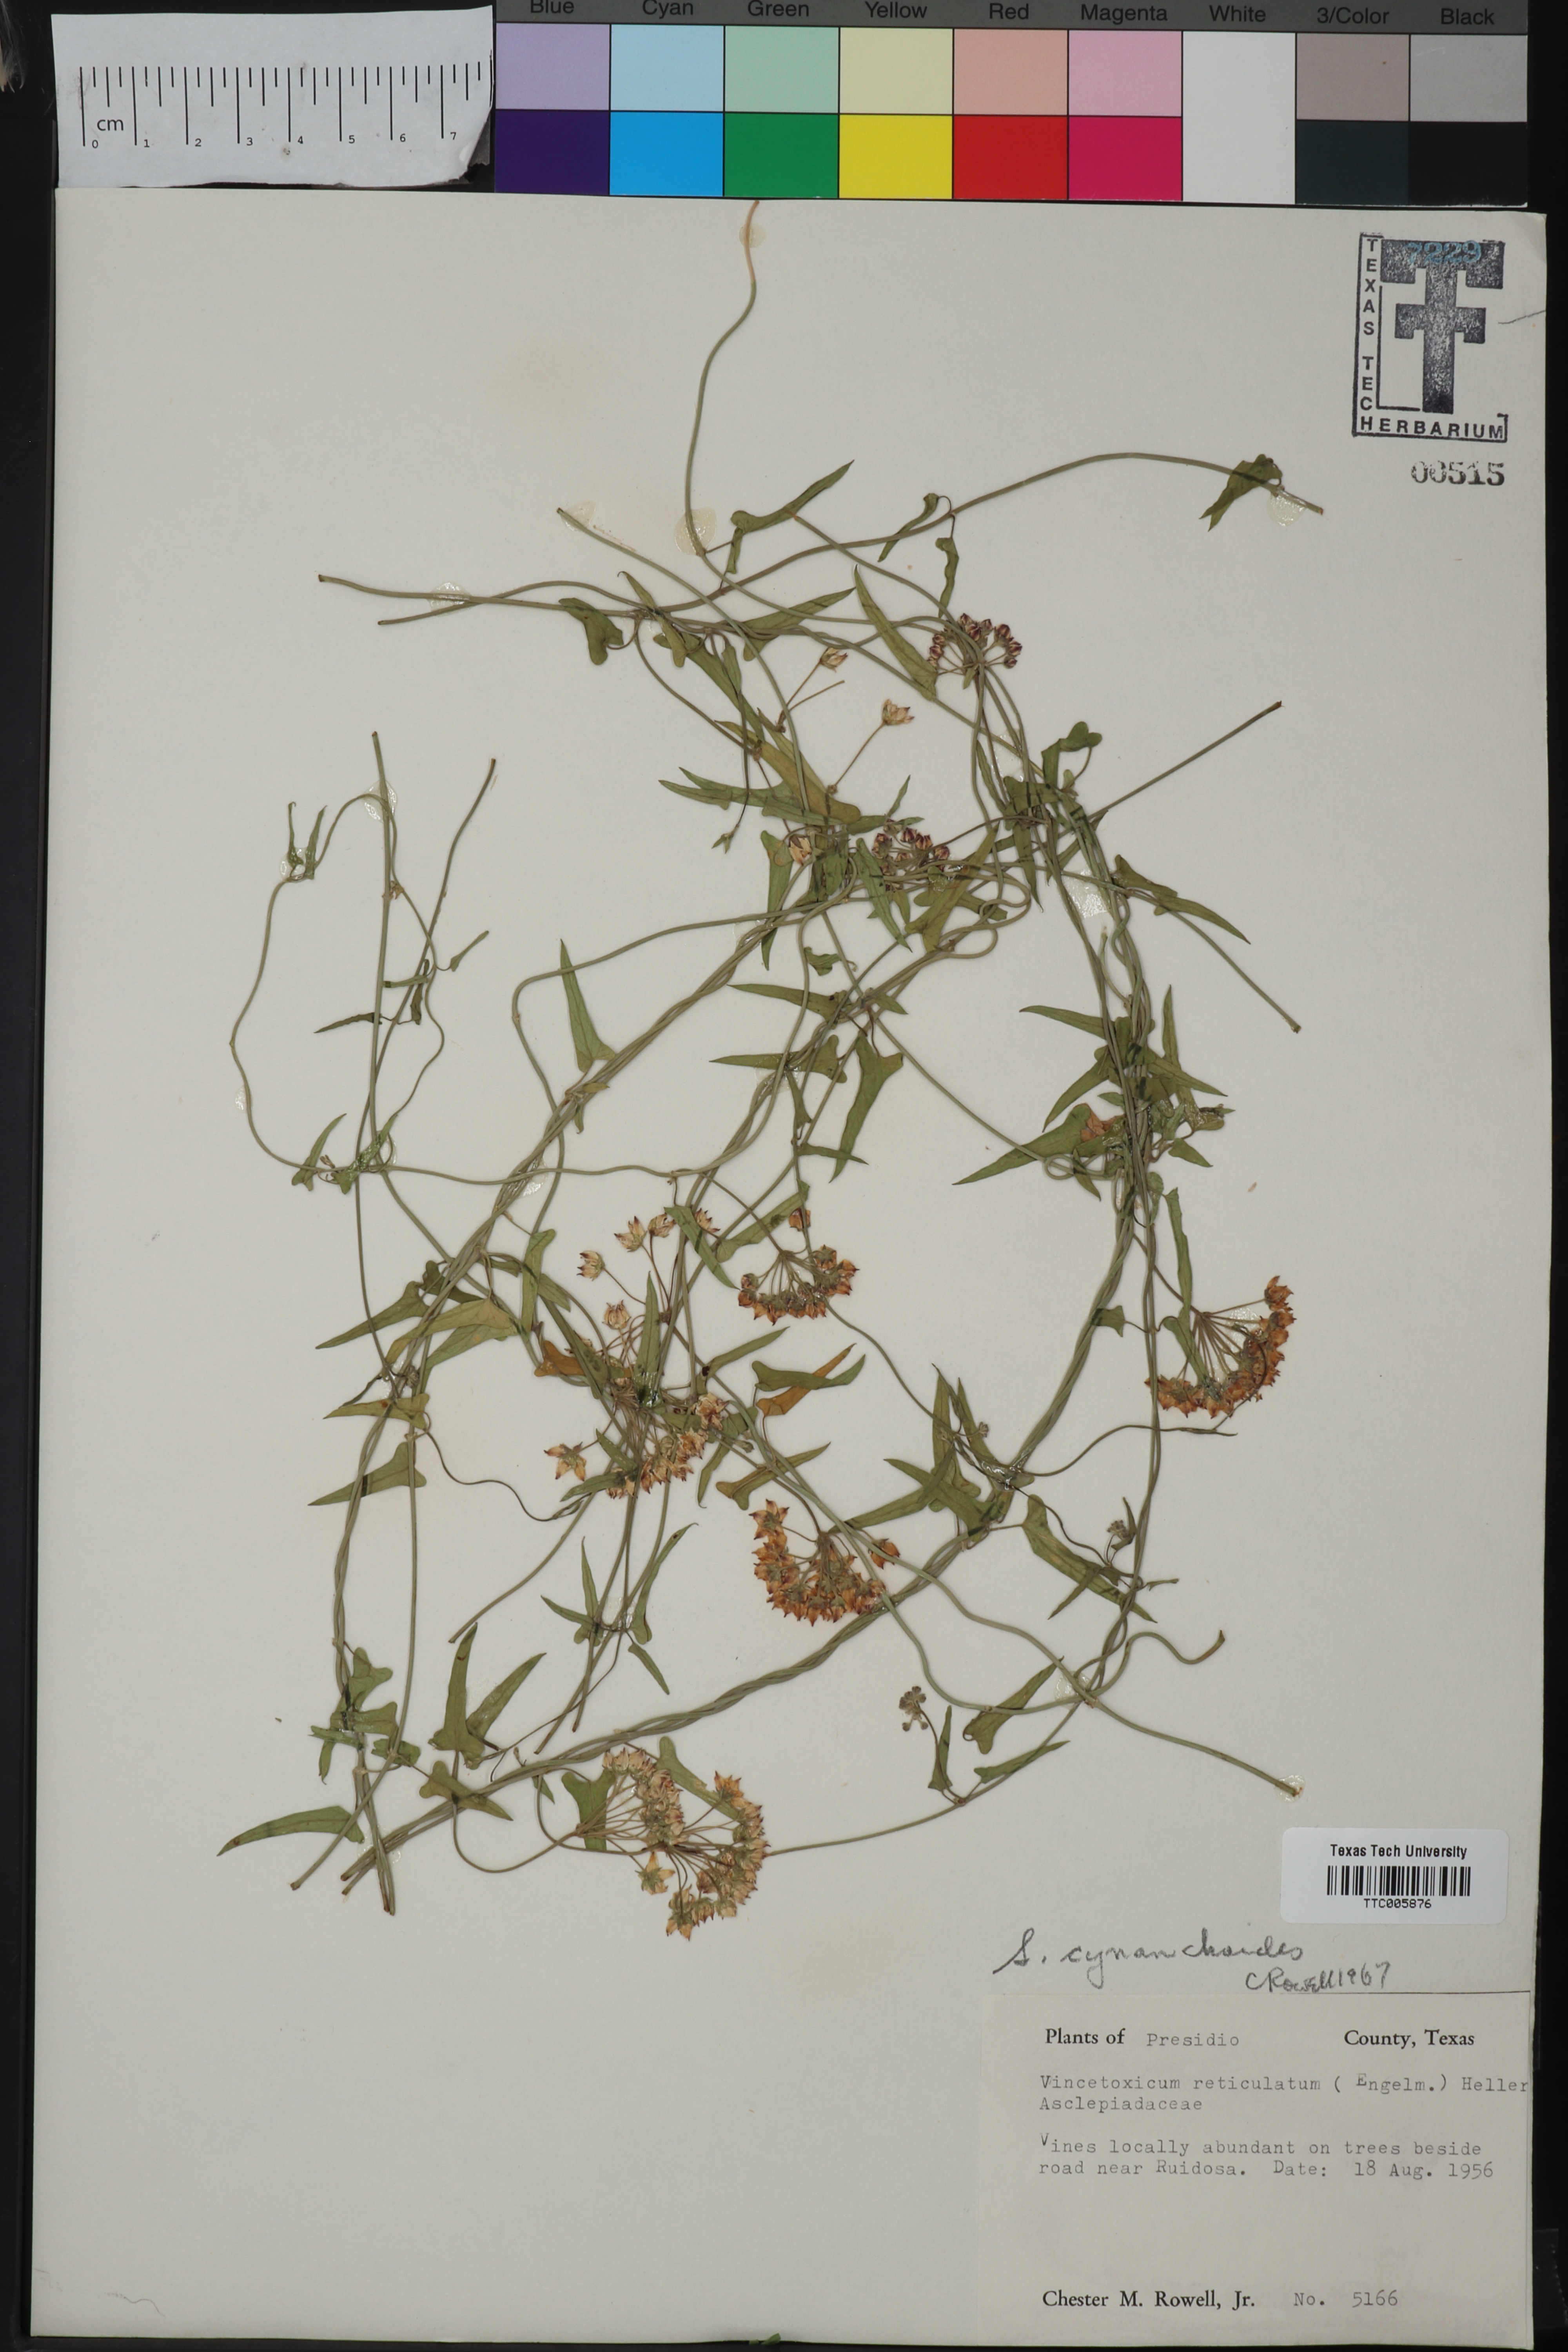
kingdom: Plantae
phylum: Tracheophyta
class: Magnoliopsida
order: Gentianales
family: Asclepiadaceae
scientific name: Asclepiadaceae
